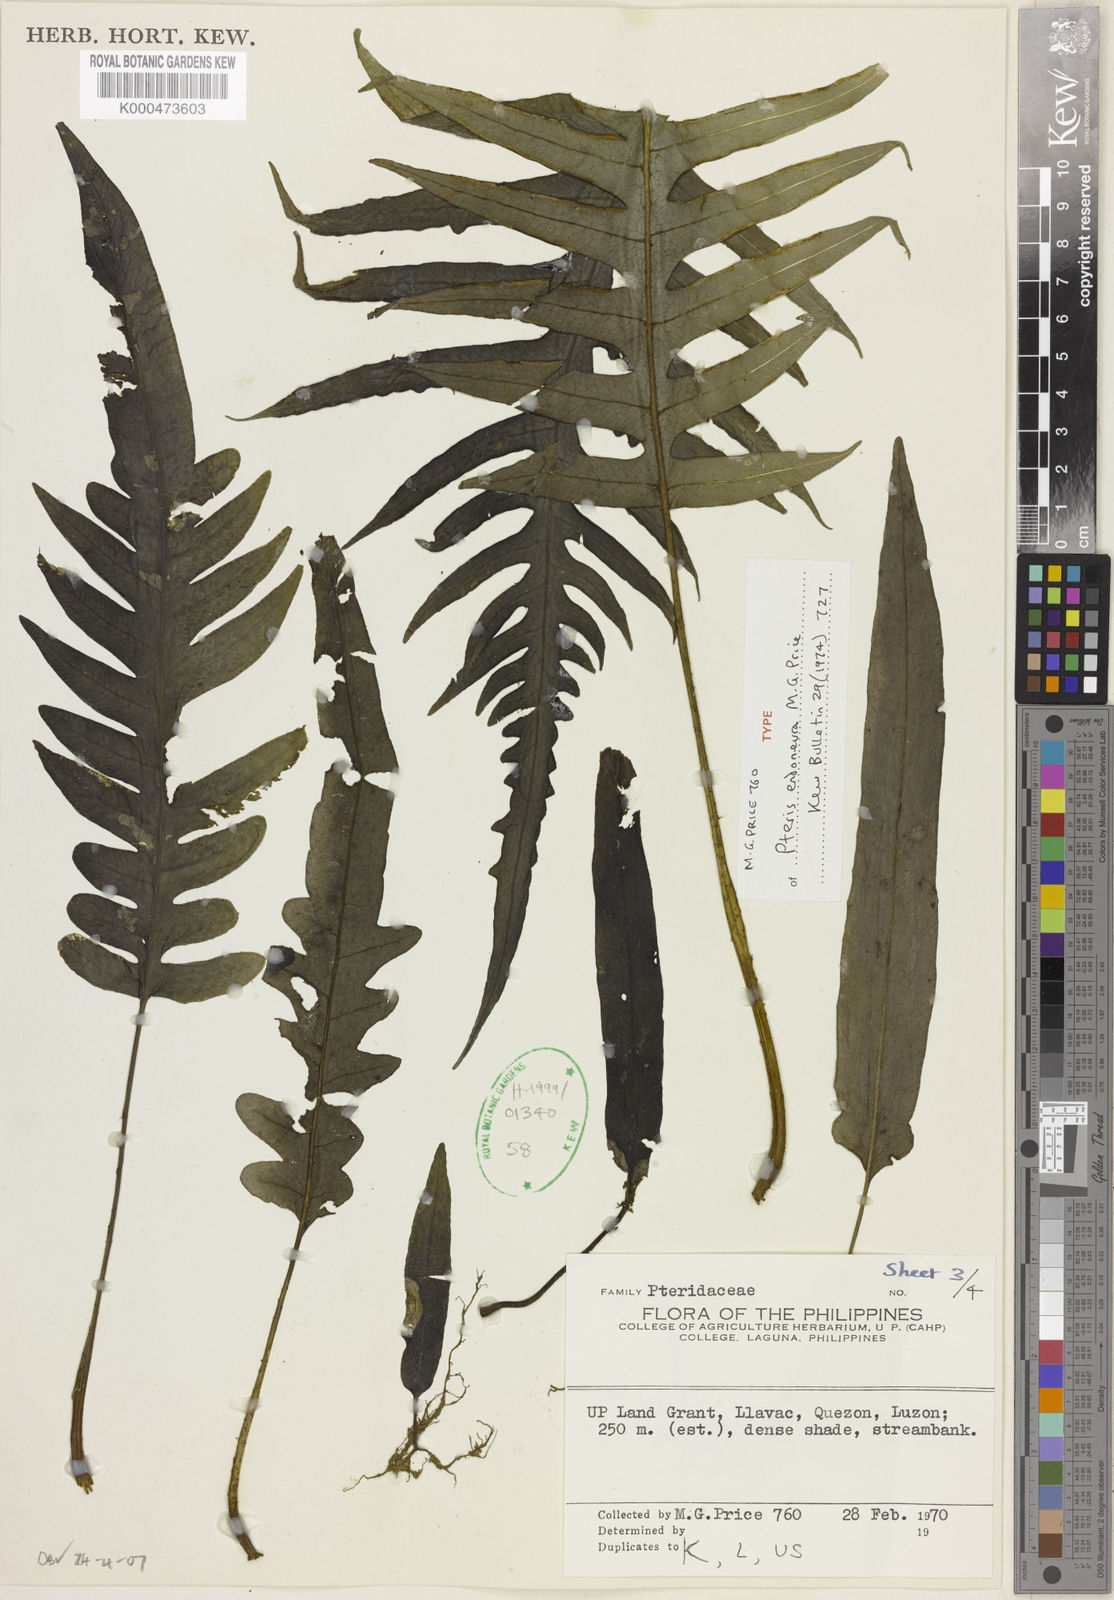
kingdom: Plantae
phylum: Tracheophyta
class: Polypodiopsida
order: Polypodiales
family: Pteridaceae
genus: Pteris
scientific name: Pteris endoneura
